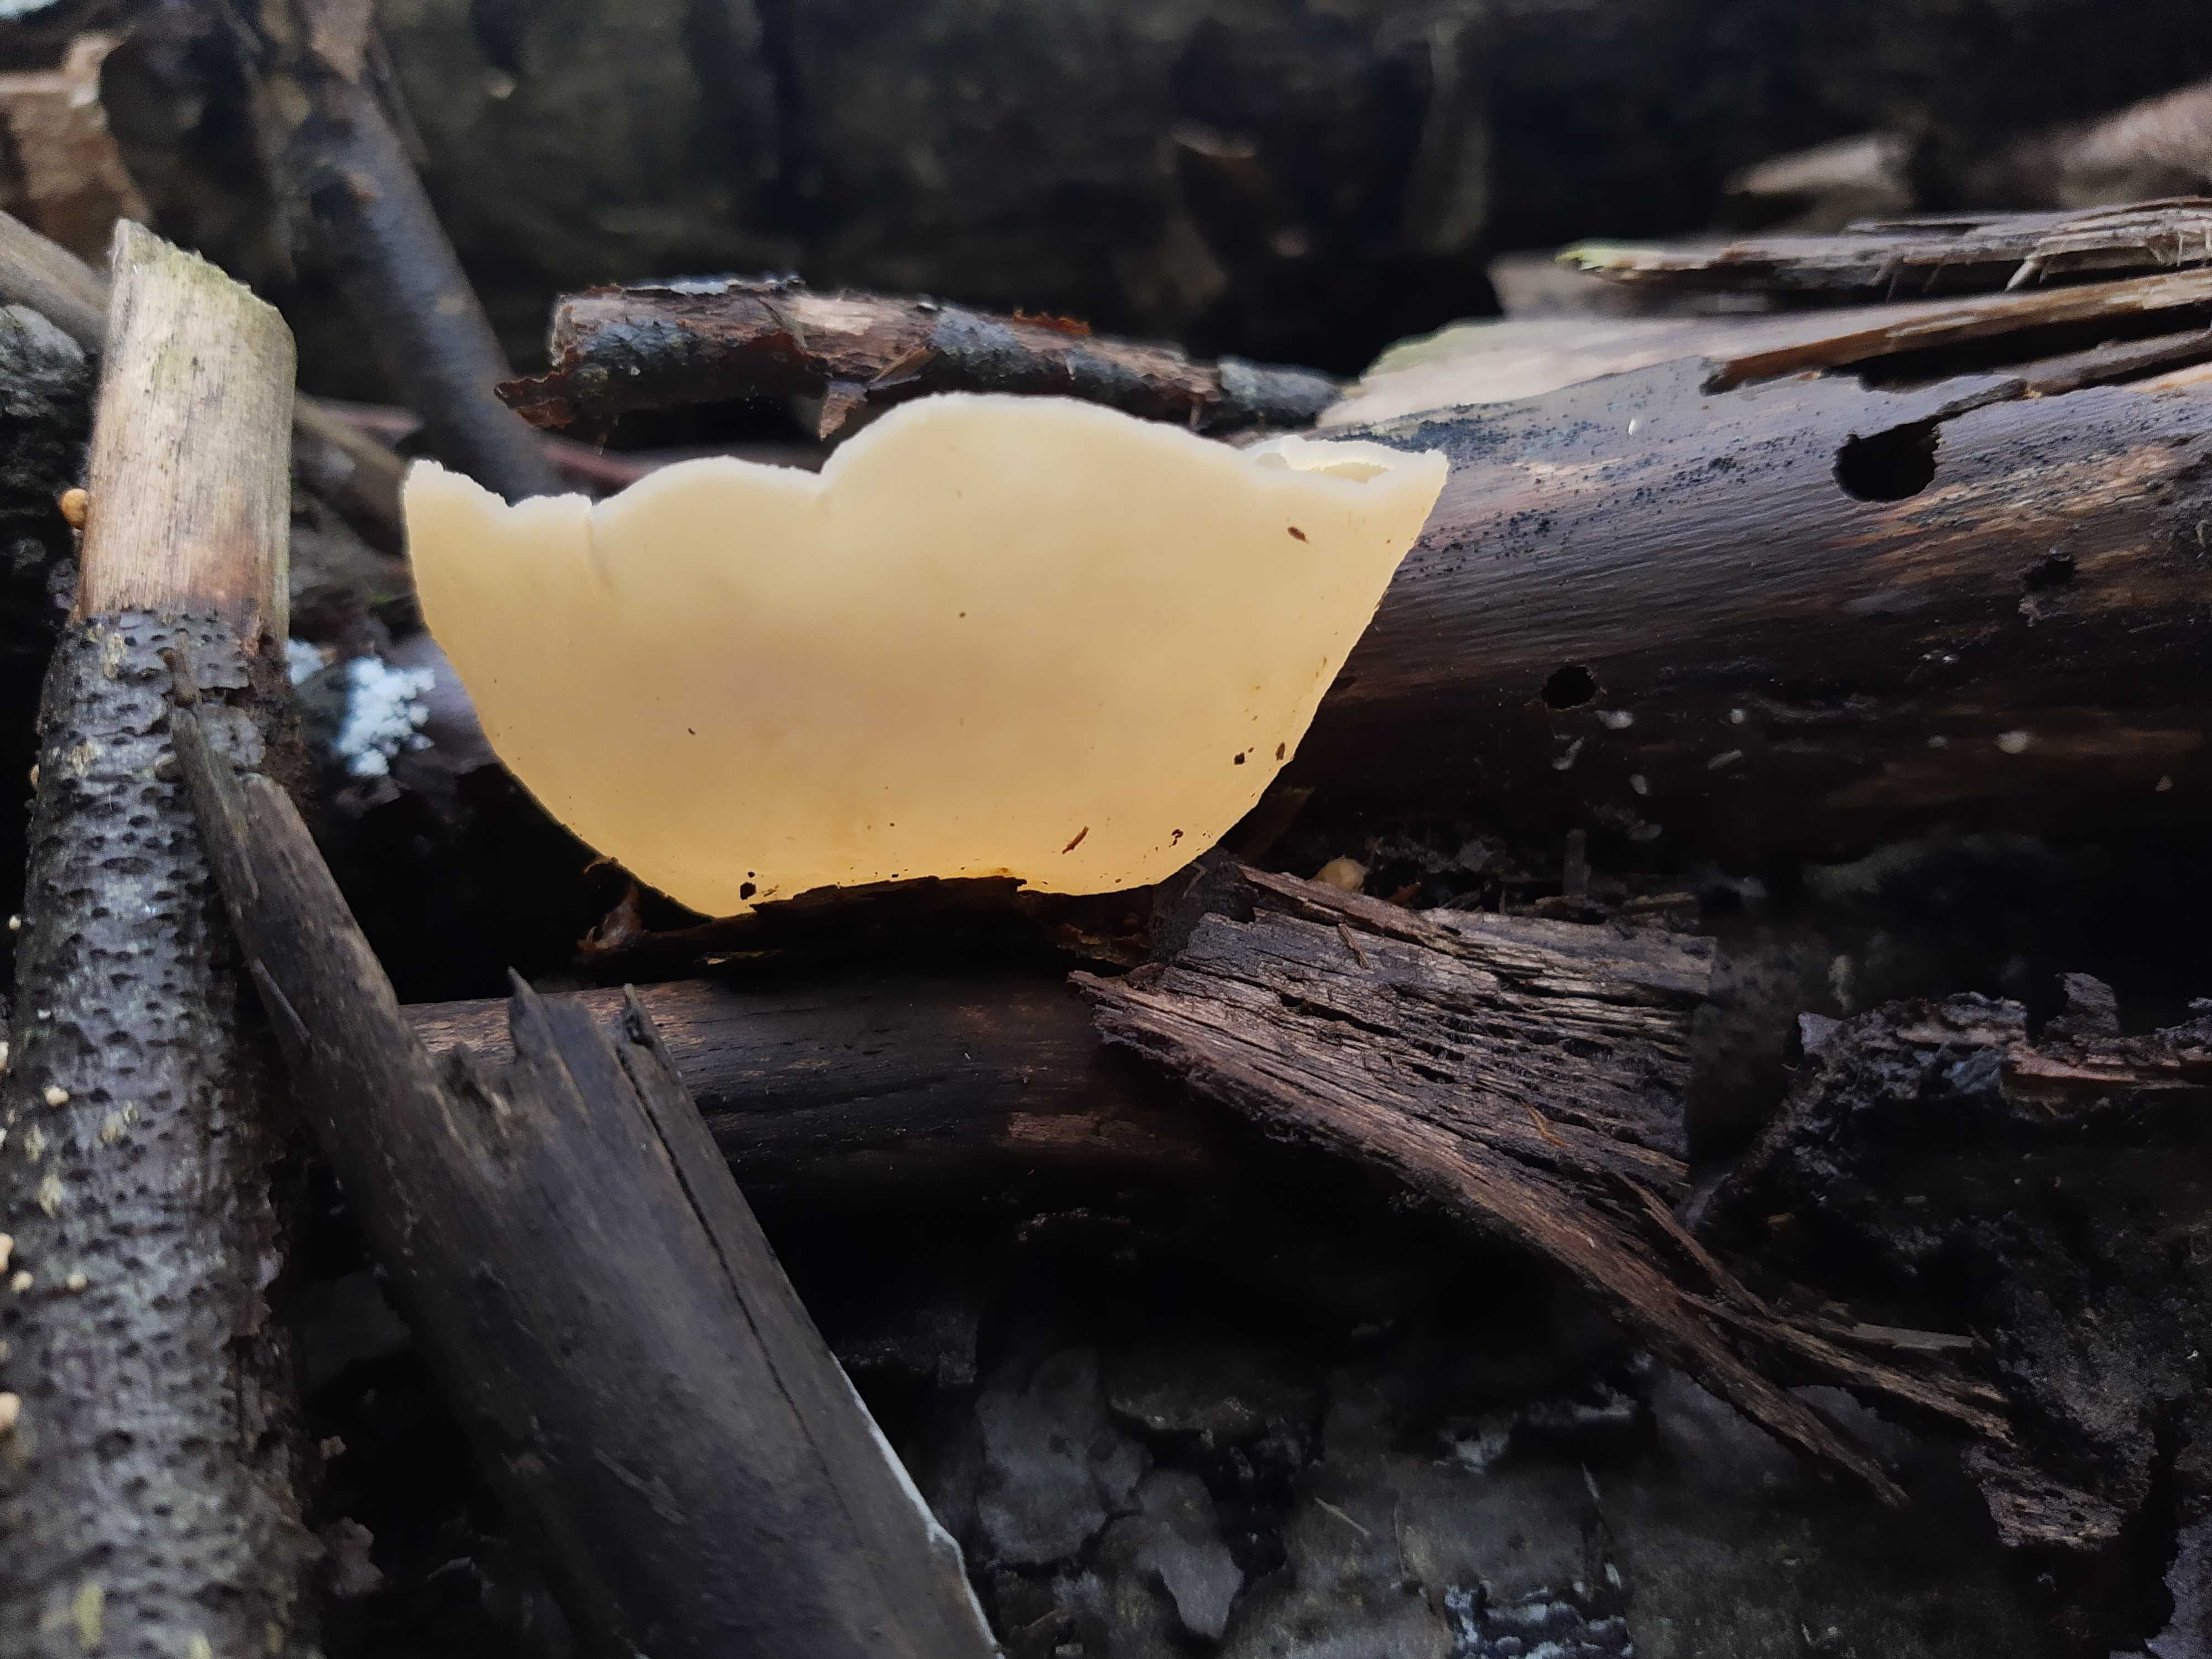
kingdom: Fungi
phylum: Ascomycota
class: Pezizomycetes
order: Pezizales
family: Pezizaceae
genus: Peziza
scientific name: Peziza varia
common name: Ved-bægersvamp
